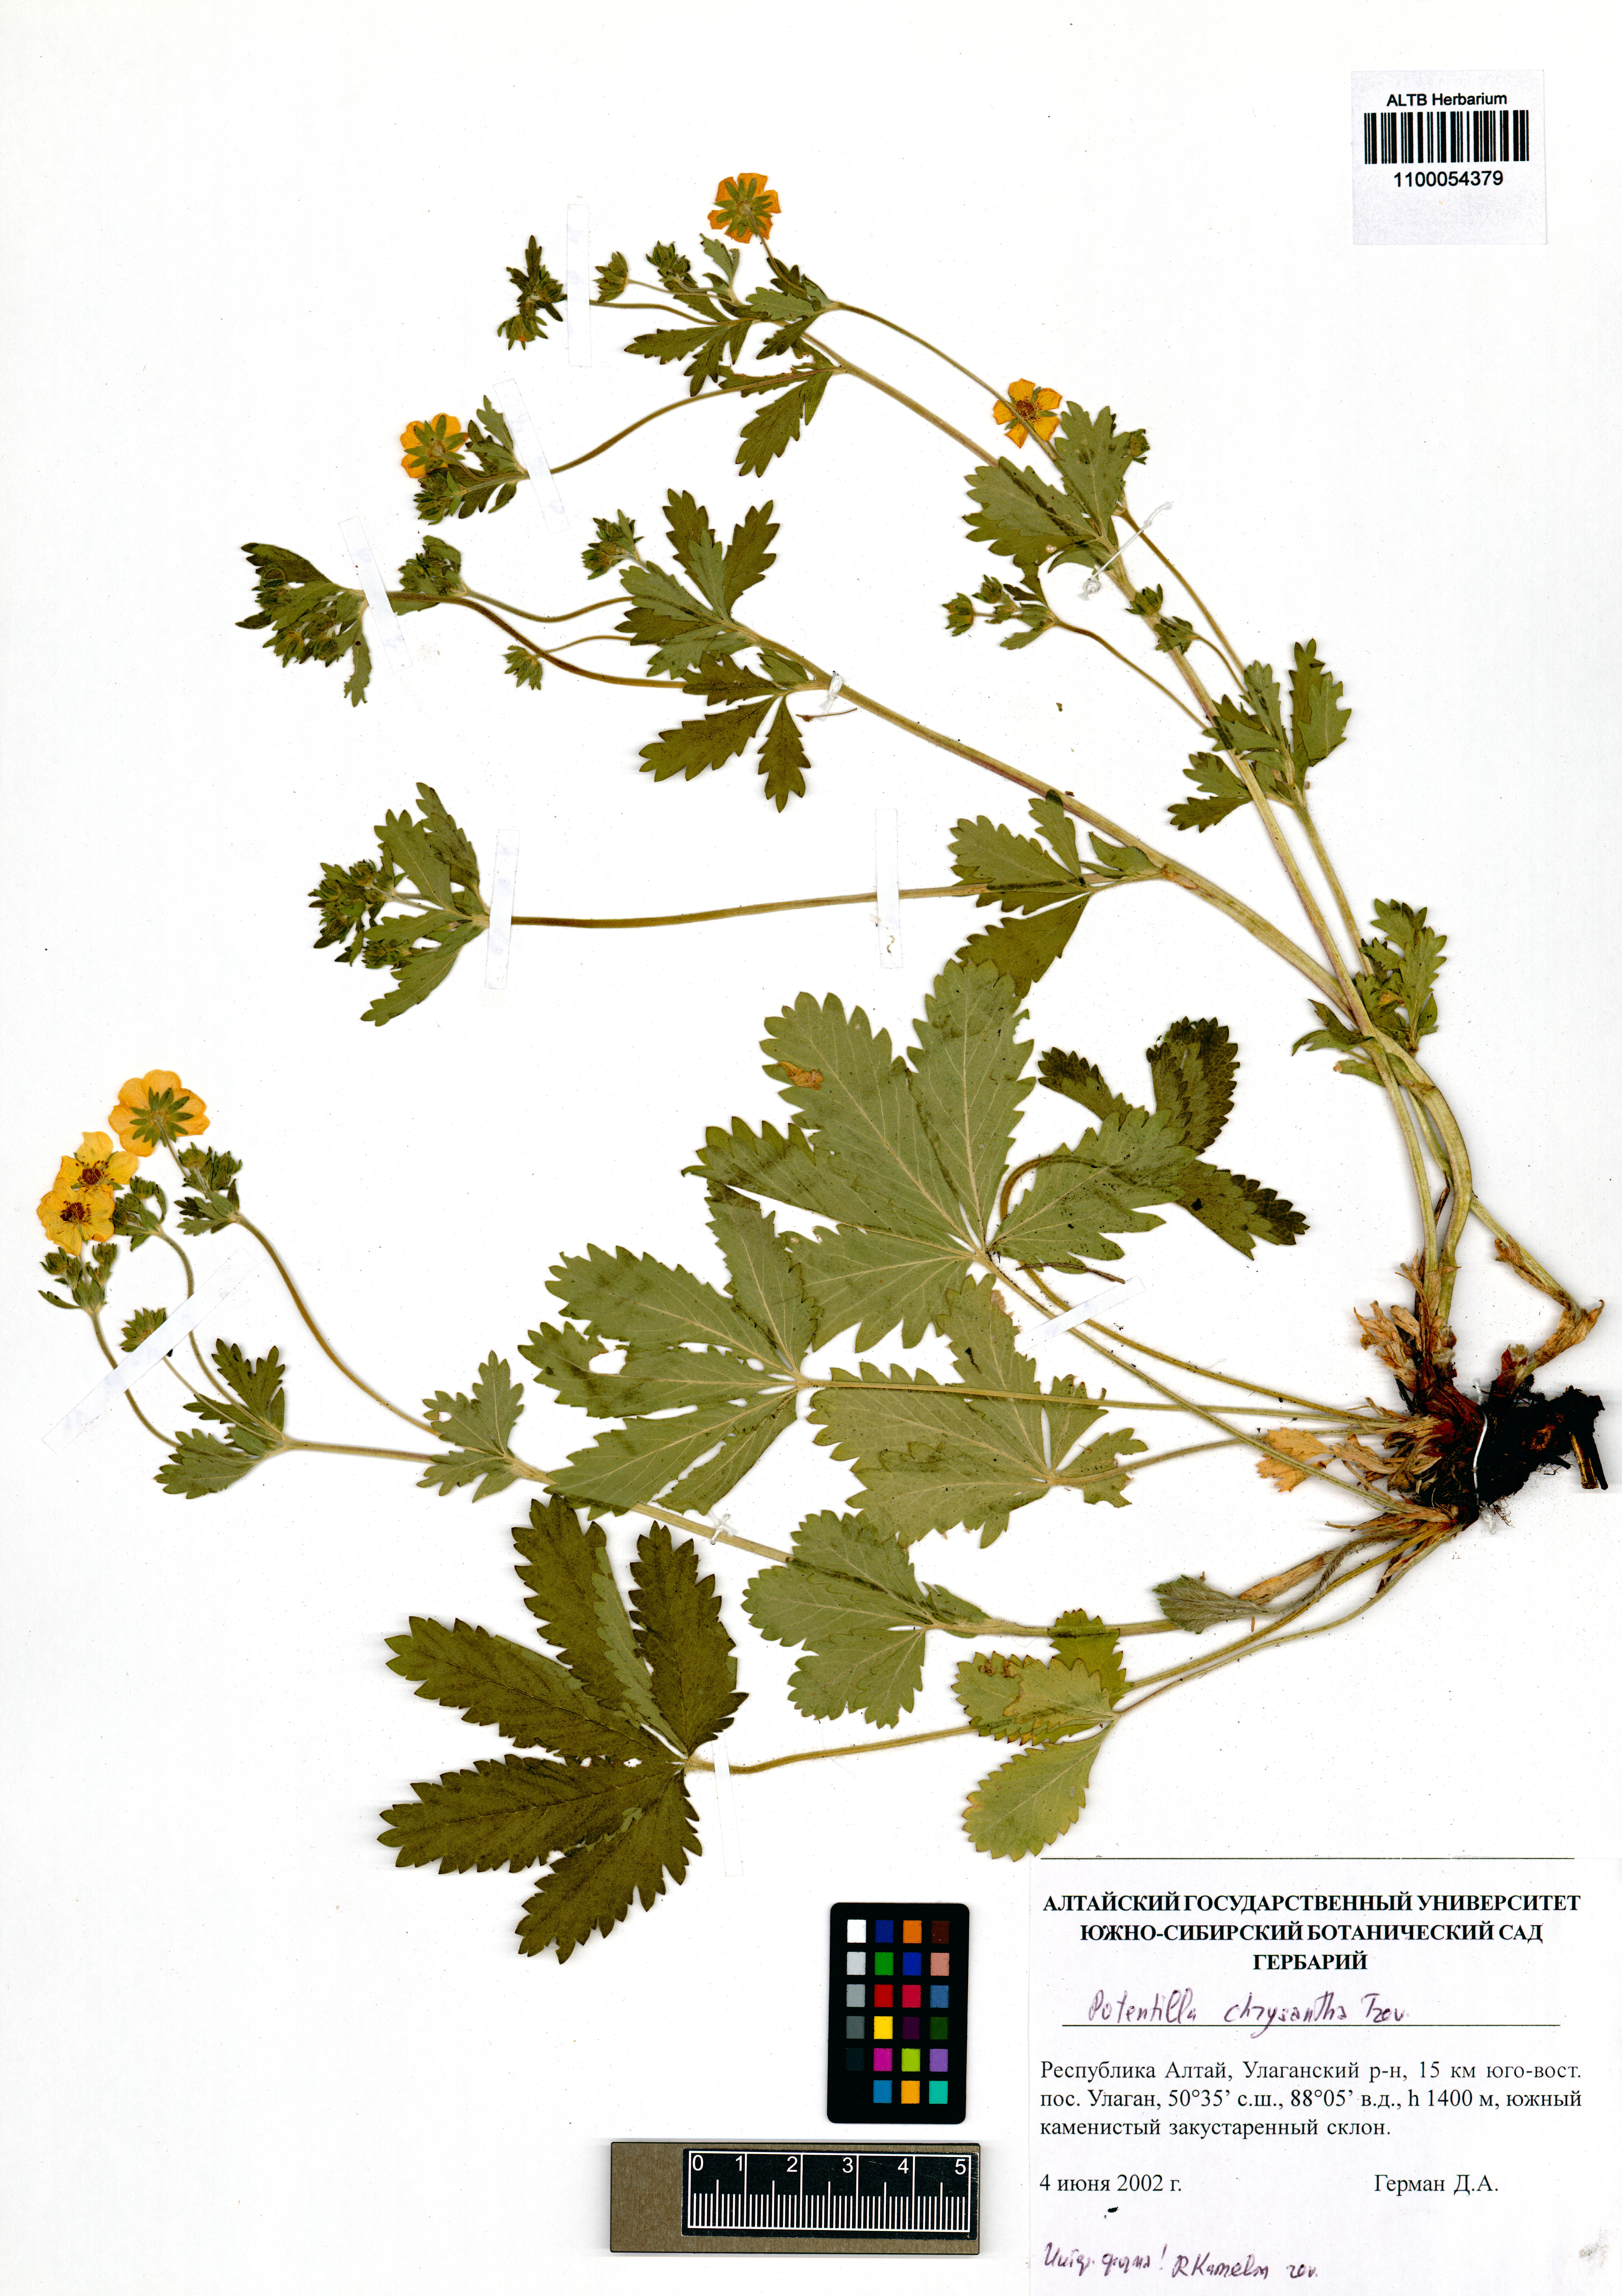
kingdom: Plantae
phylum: Tracheophyta
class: Magnoliopsida
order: Rosales
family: Rosaceae
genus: Potentilla
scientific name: Potentilla chrysantha
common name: Thuringian cinquefoil
